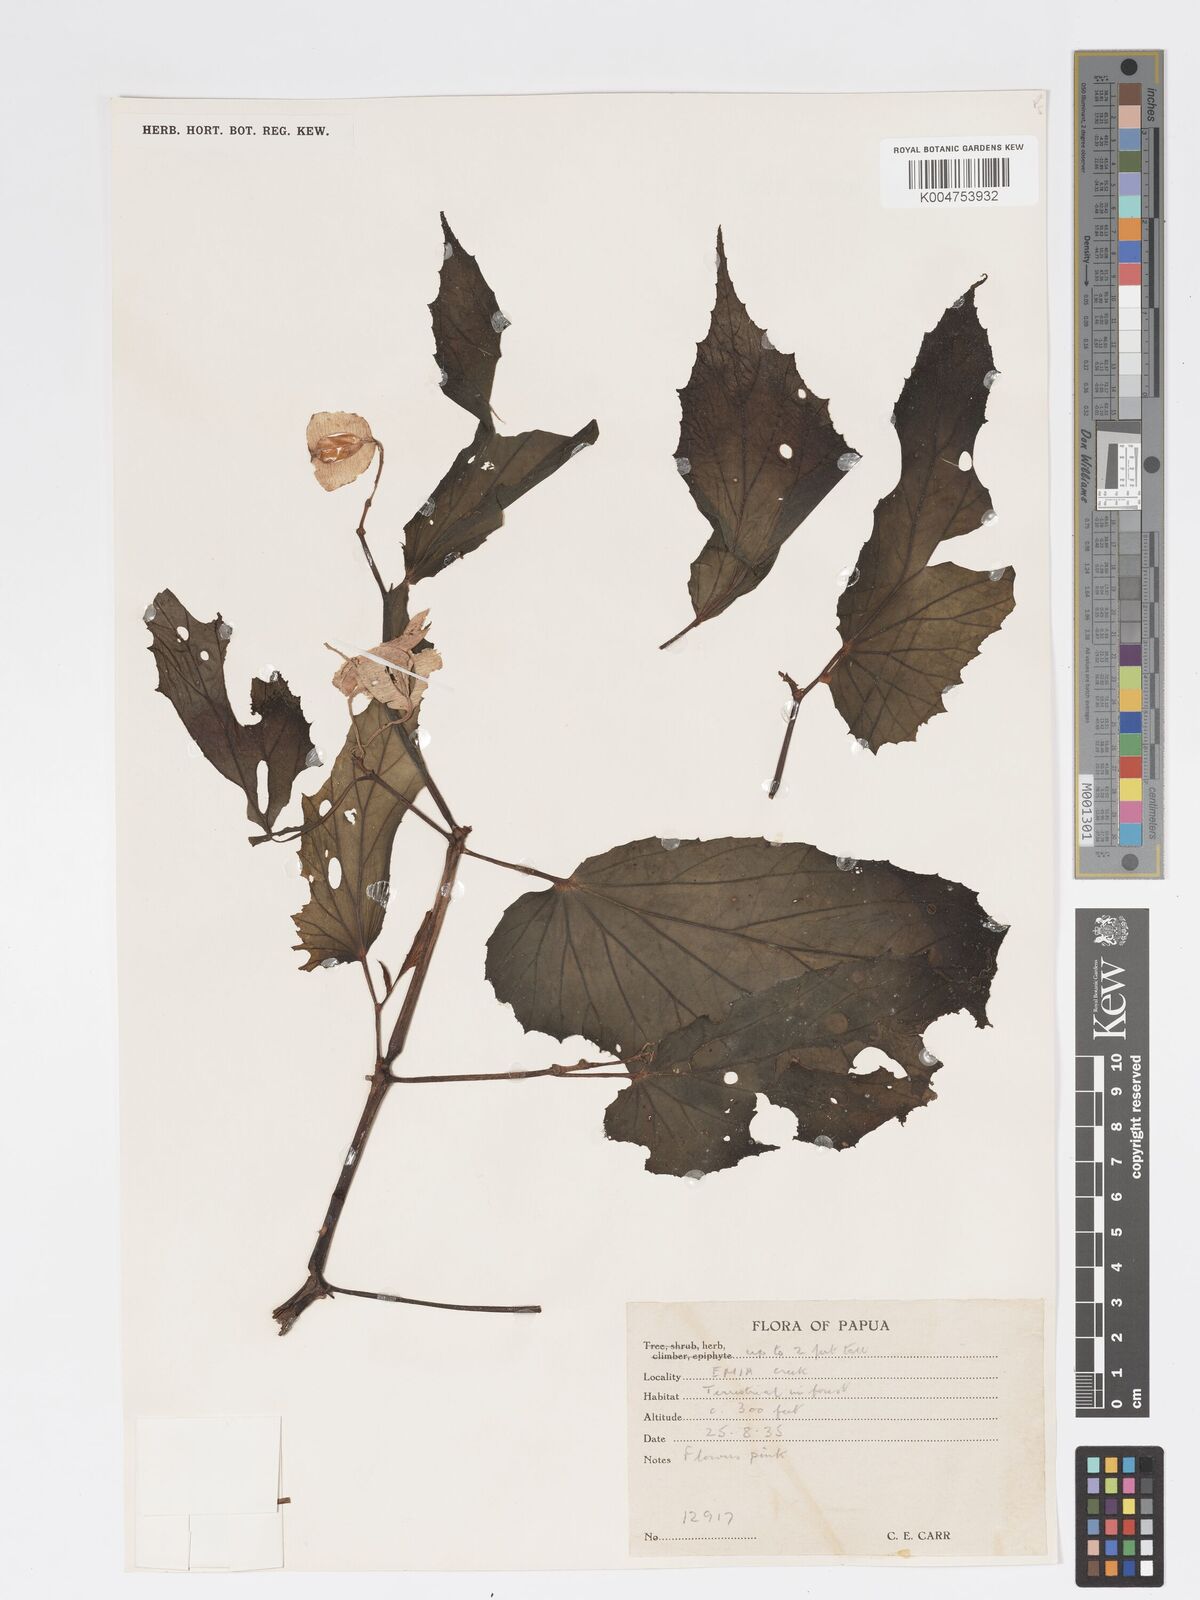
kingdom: Plantae
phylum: Tracheophyta
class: Magnoliopsida
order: Cucurbitales
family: Begoniaceae
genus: Begonia
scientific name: Begonia augustae
